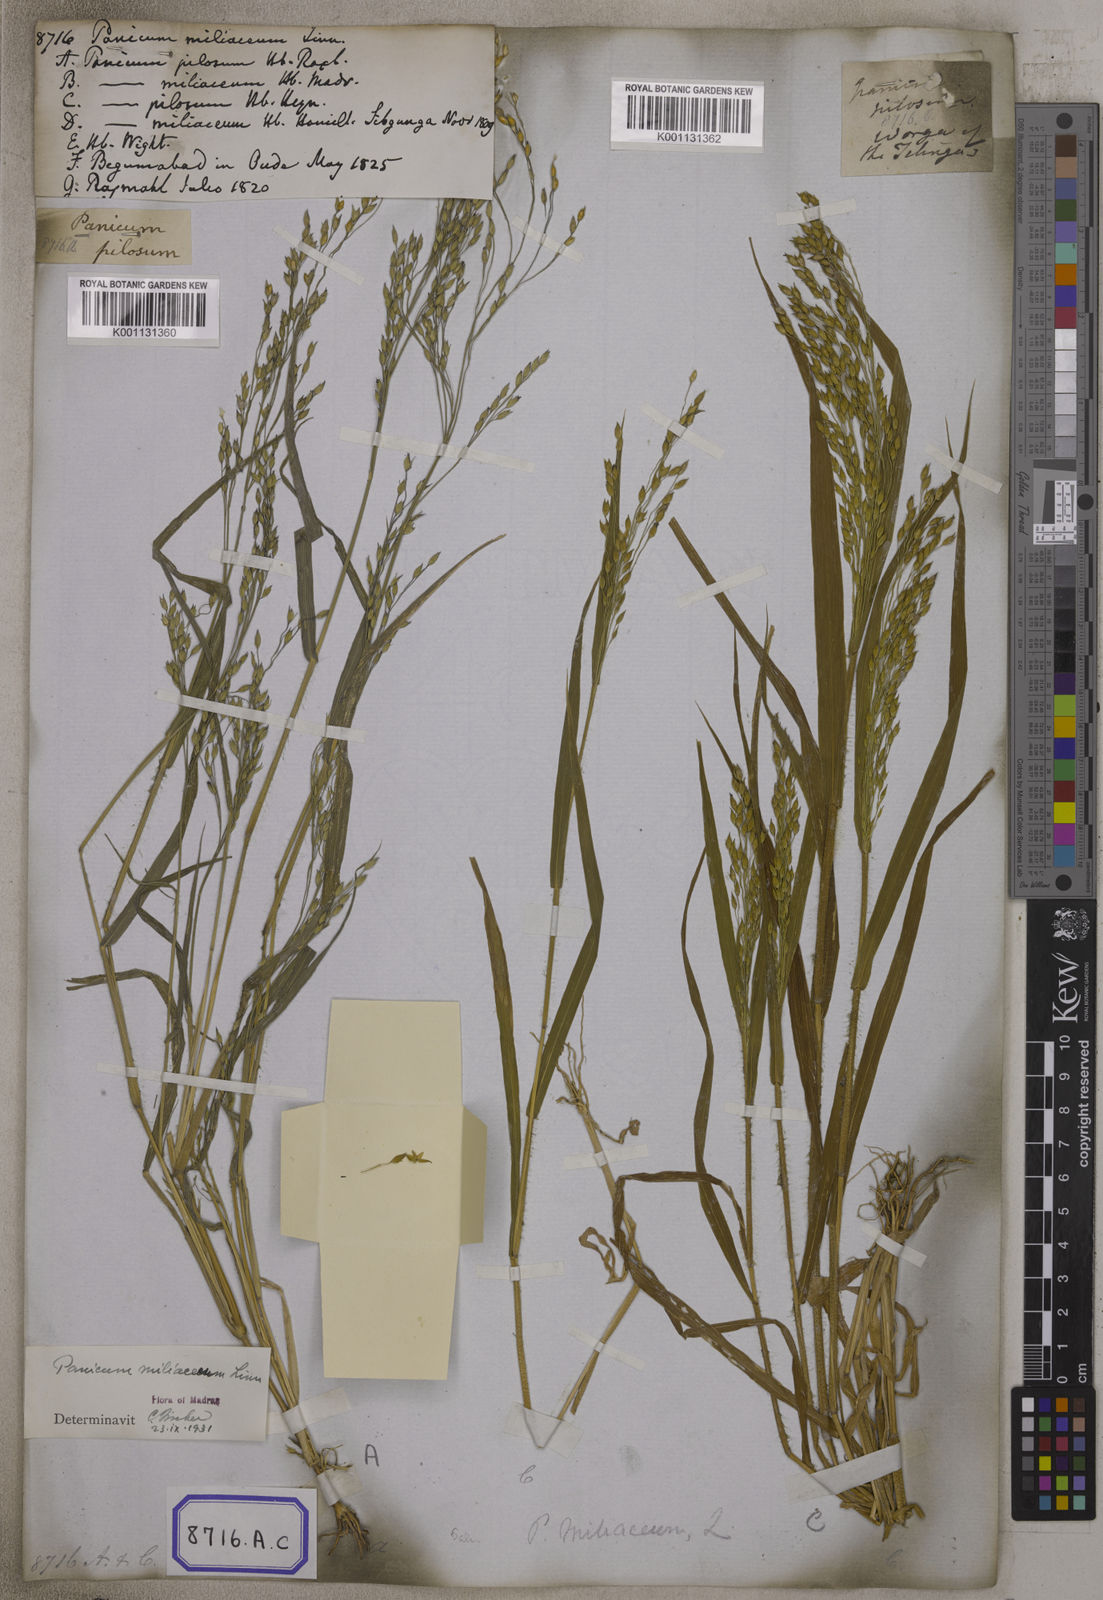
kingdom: Plantae
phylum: Tracheophyta
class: Liliopsida
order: Poales
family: Poaceae
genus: Panicum
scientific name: Panicum miliaceum
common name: Common millet
